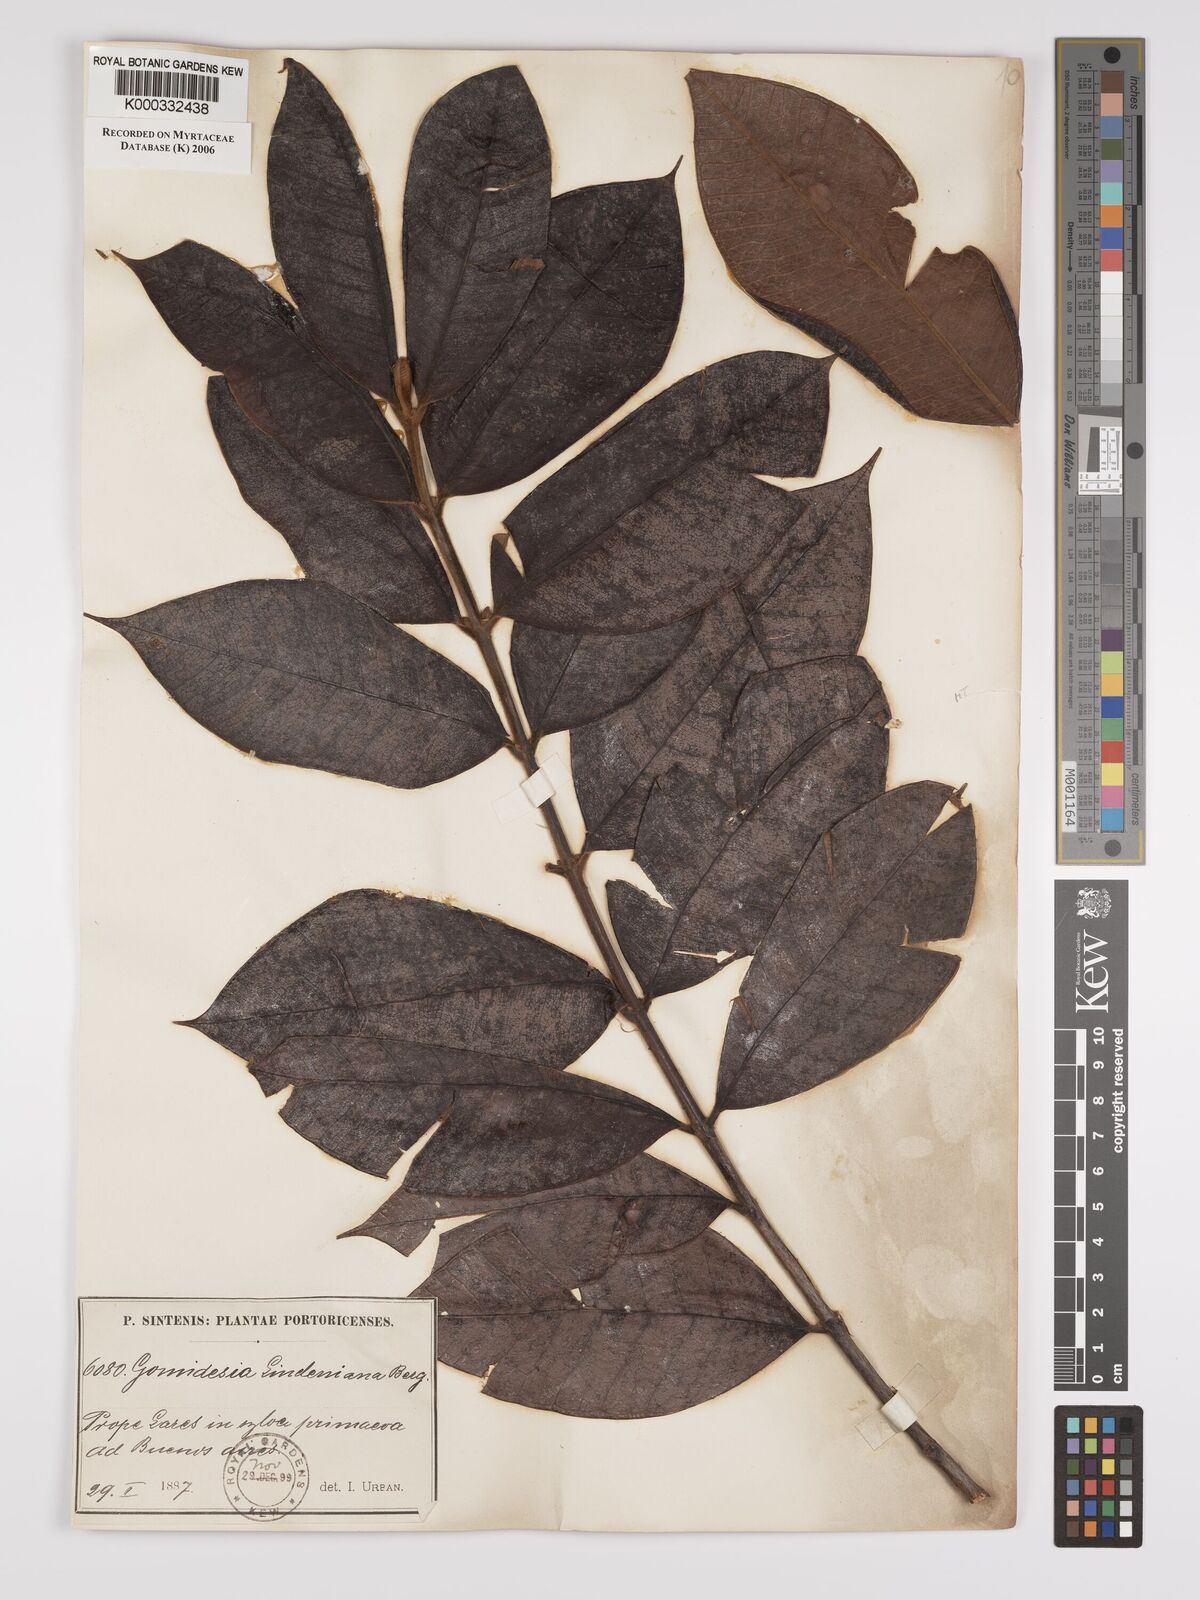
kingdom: Plantae
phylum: Tracheophyta
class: Magnoliopsida
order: Myrtales
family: Myrtaceae
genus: Myrcia
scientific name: Myrcia fenzliana
